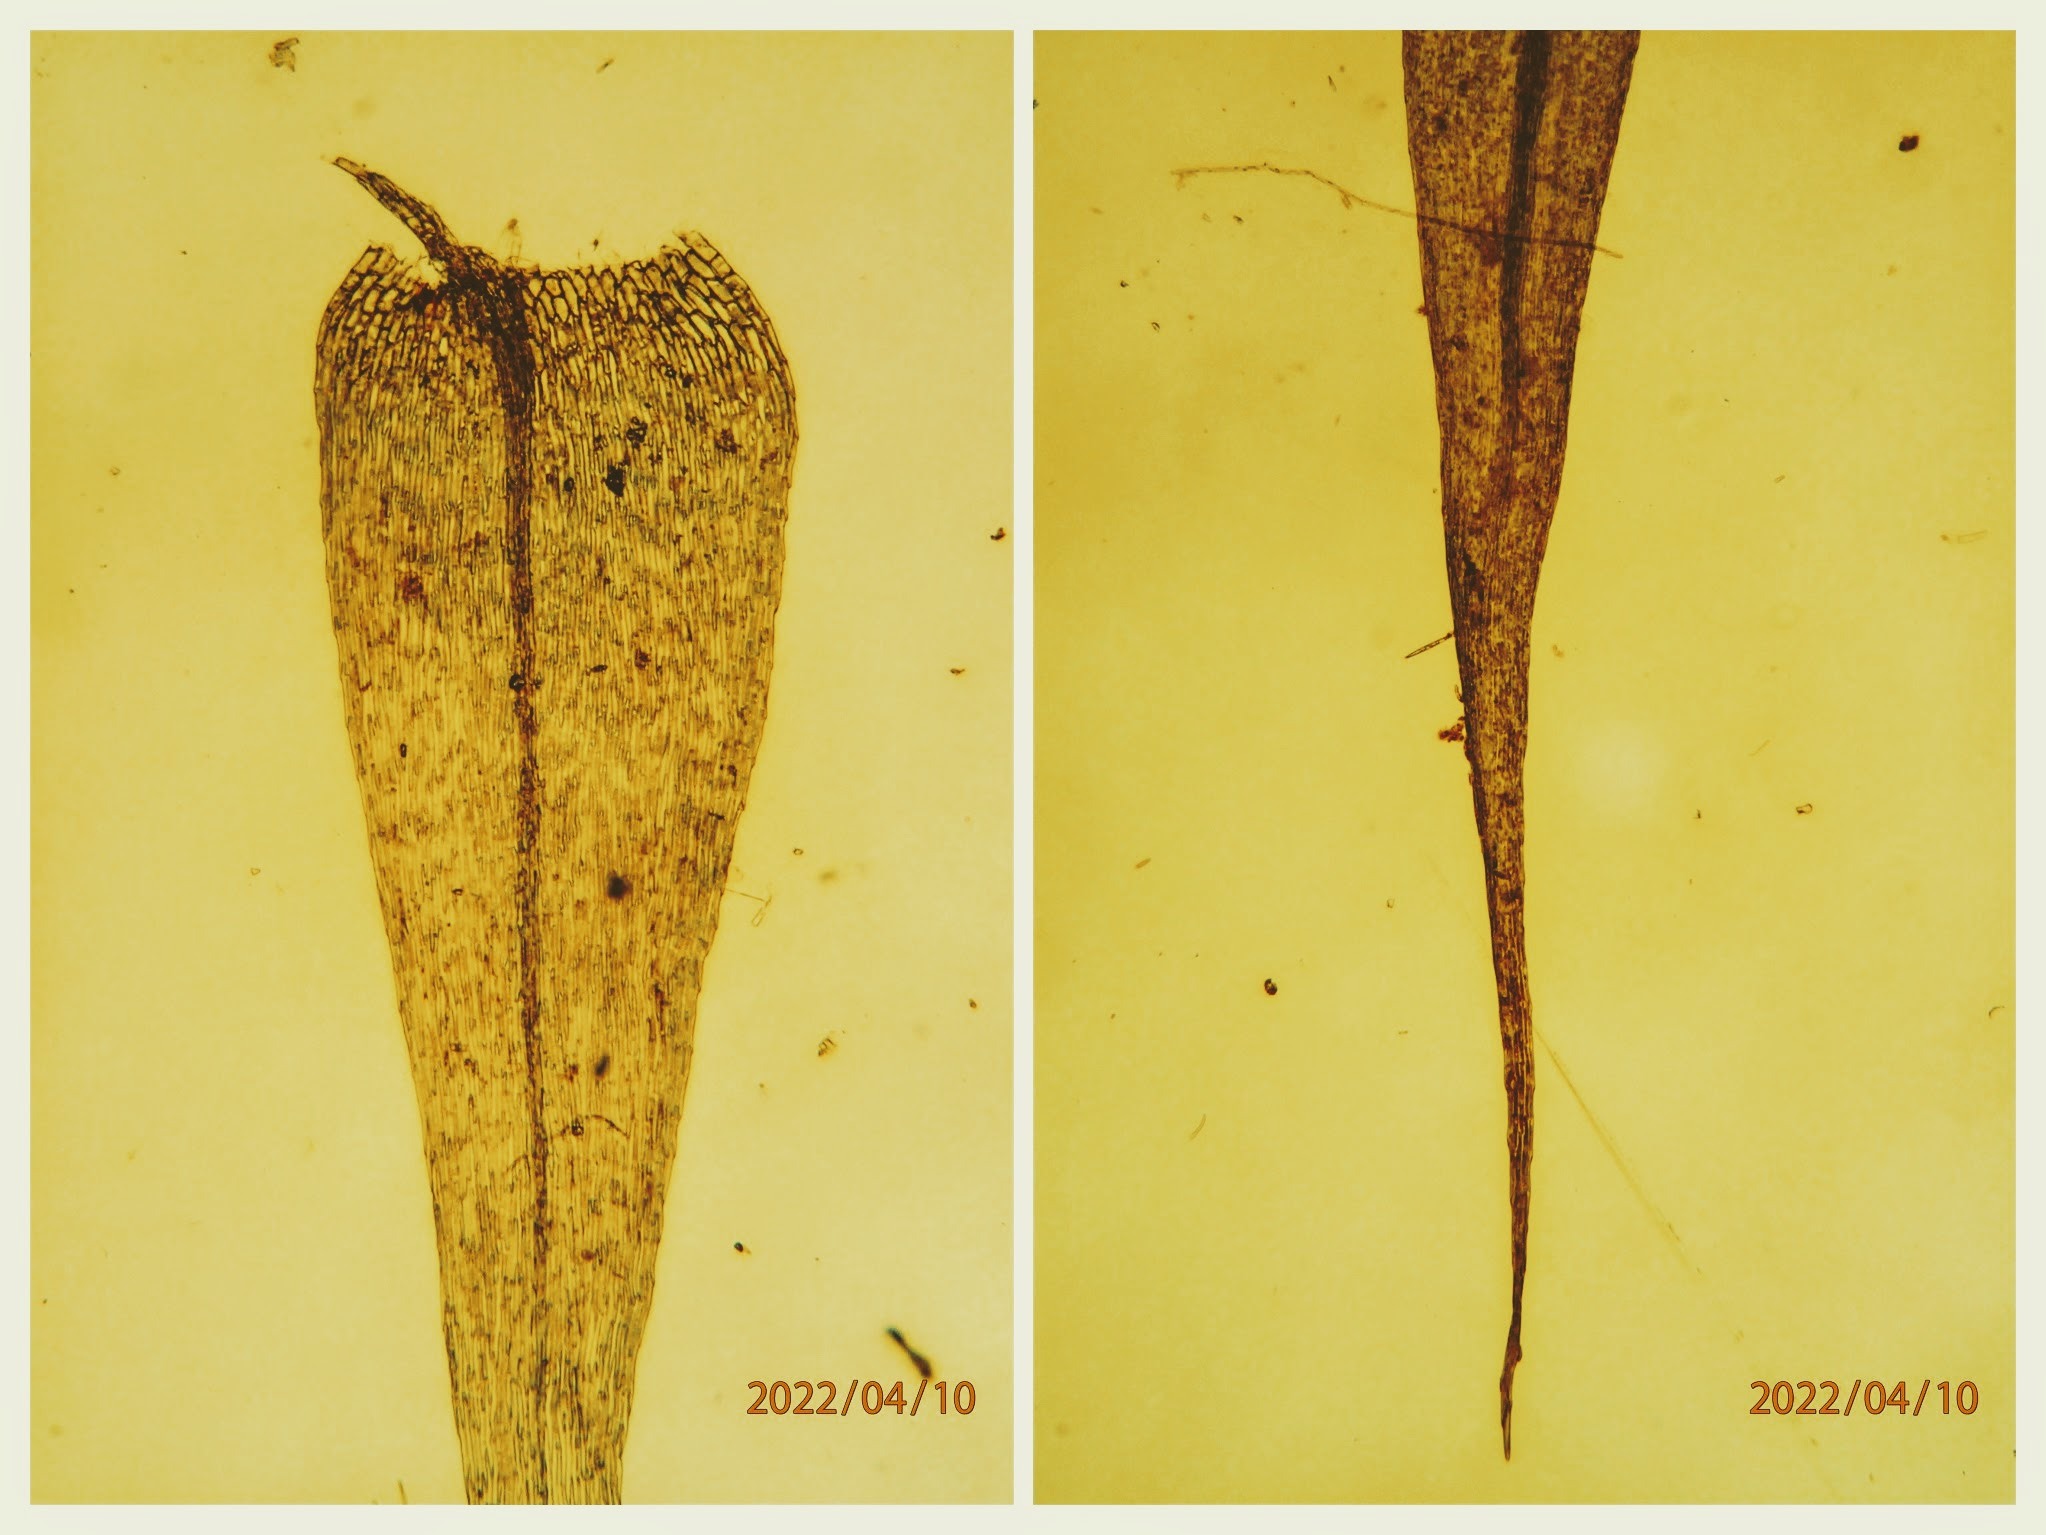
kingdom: Plantae
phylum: Bryophyta
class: Bryopsida
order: Hypnales
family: Amblystegiaceae
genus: Leptodictyum
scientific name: Leptodictyum riparium
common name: Stor pytmos
